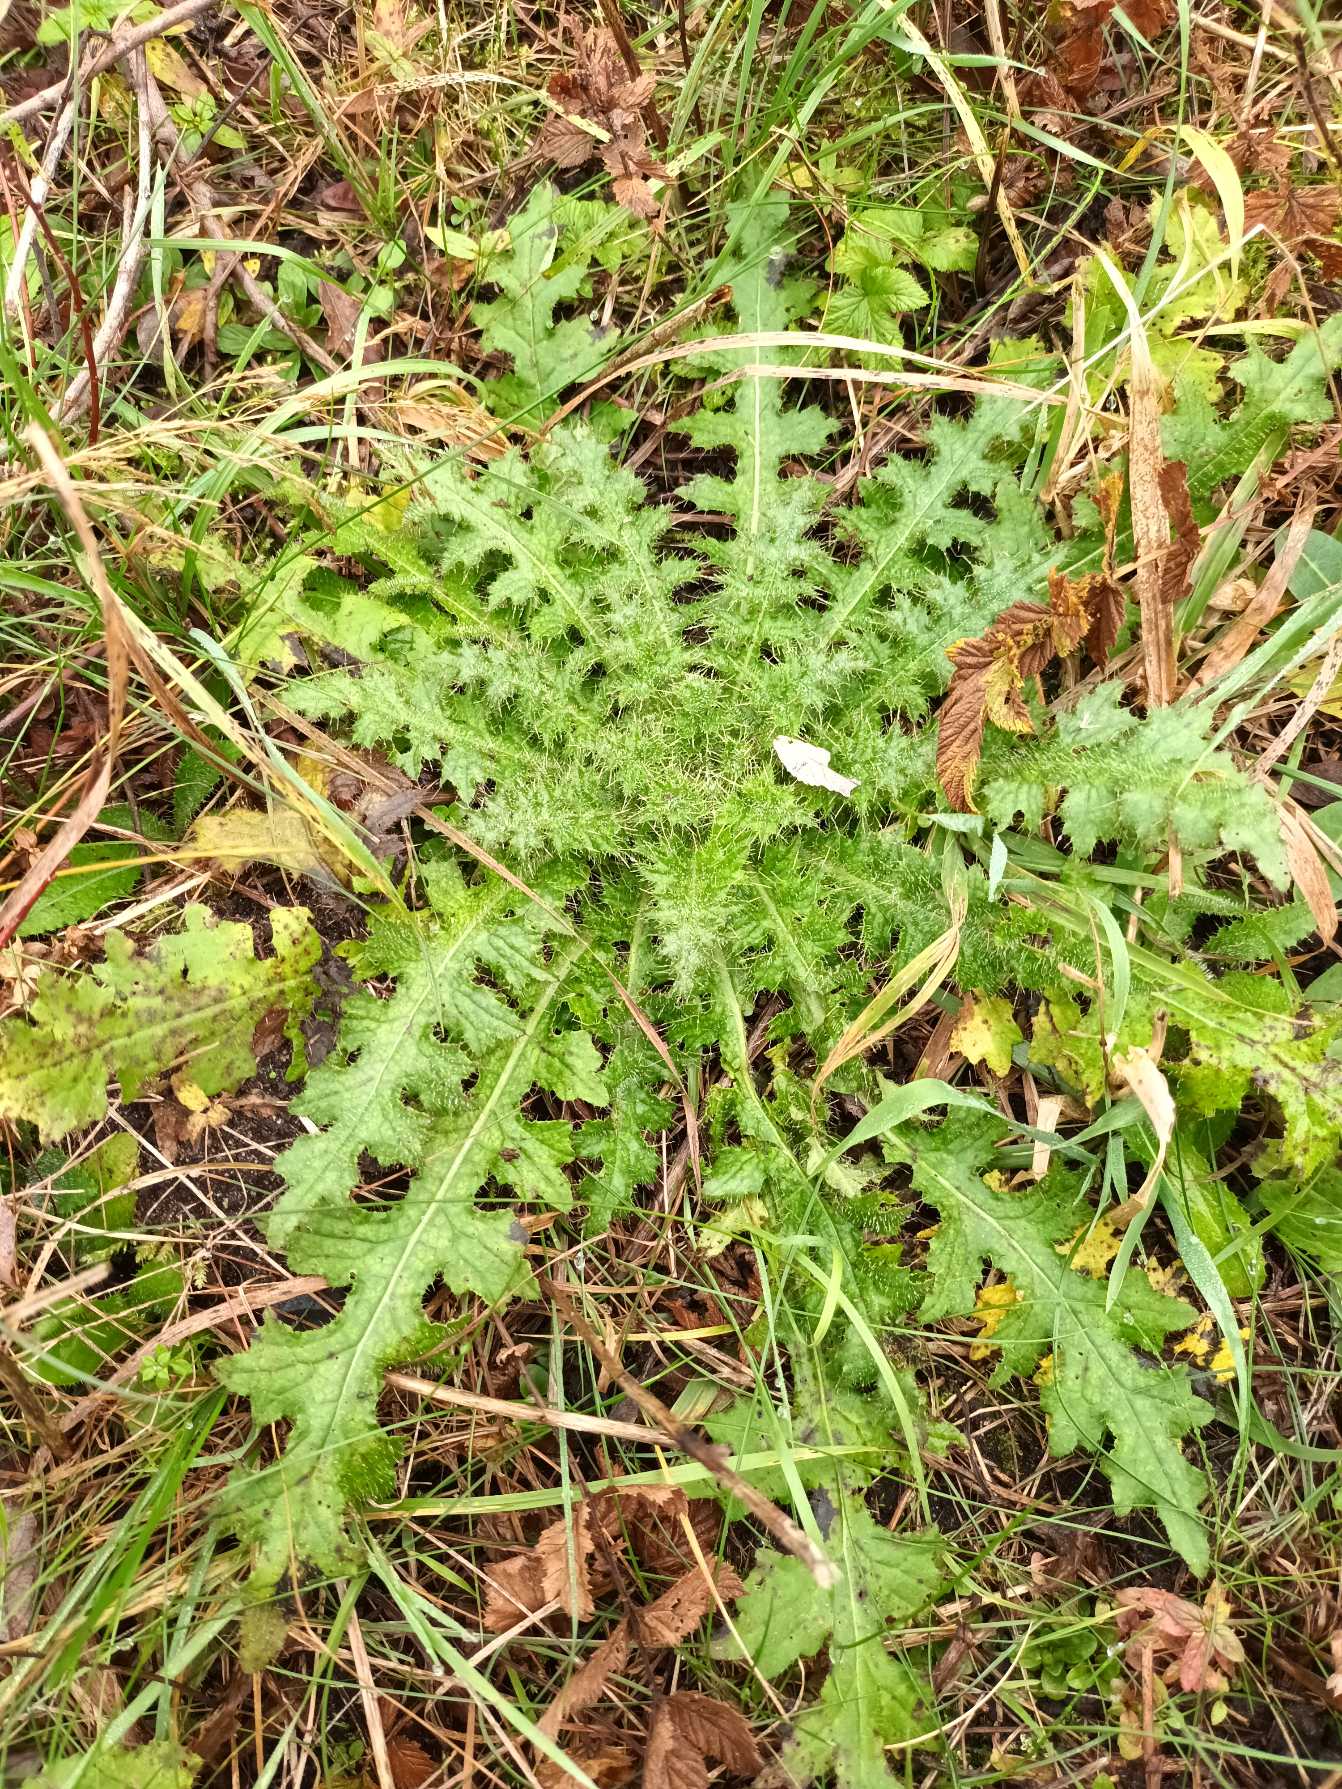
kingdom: Plantae
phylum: Tracheophyta
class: Magnoliopsida
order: Asterales
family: Asteraceae
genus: Cirsium
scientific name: Cirsium palustre
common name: Kær-tidsel
